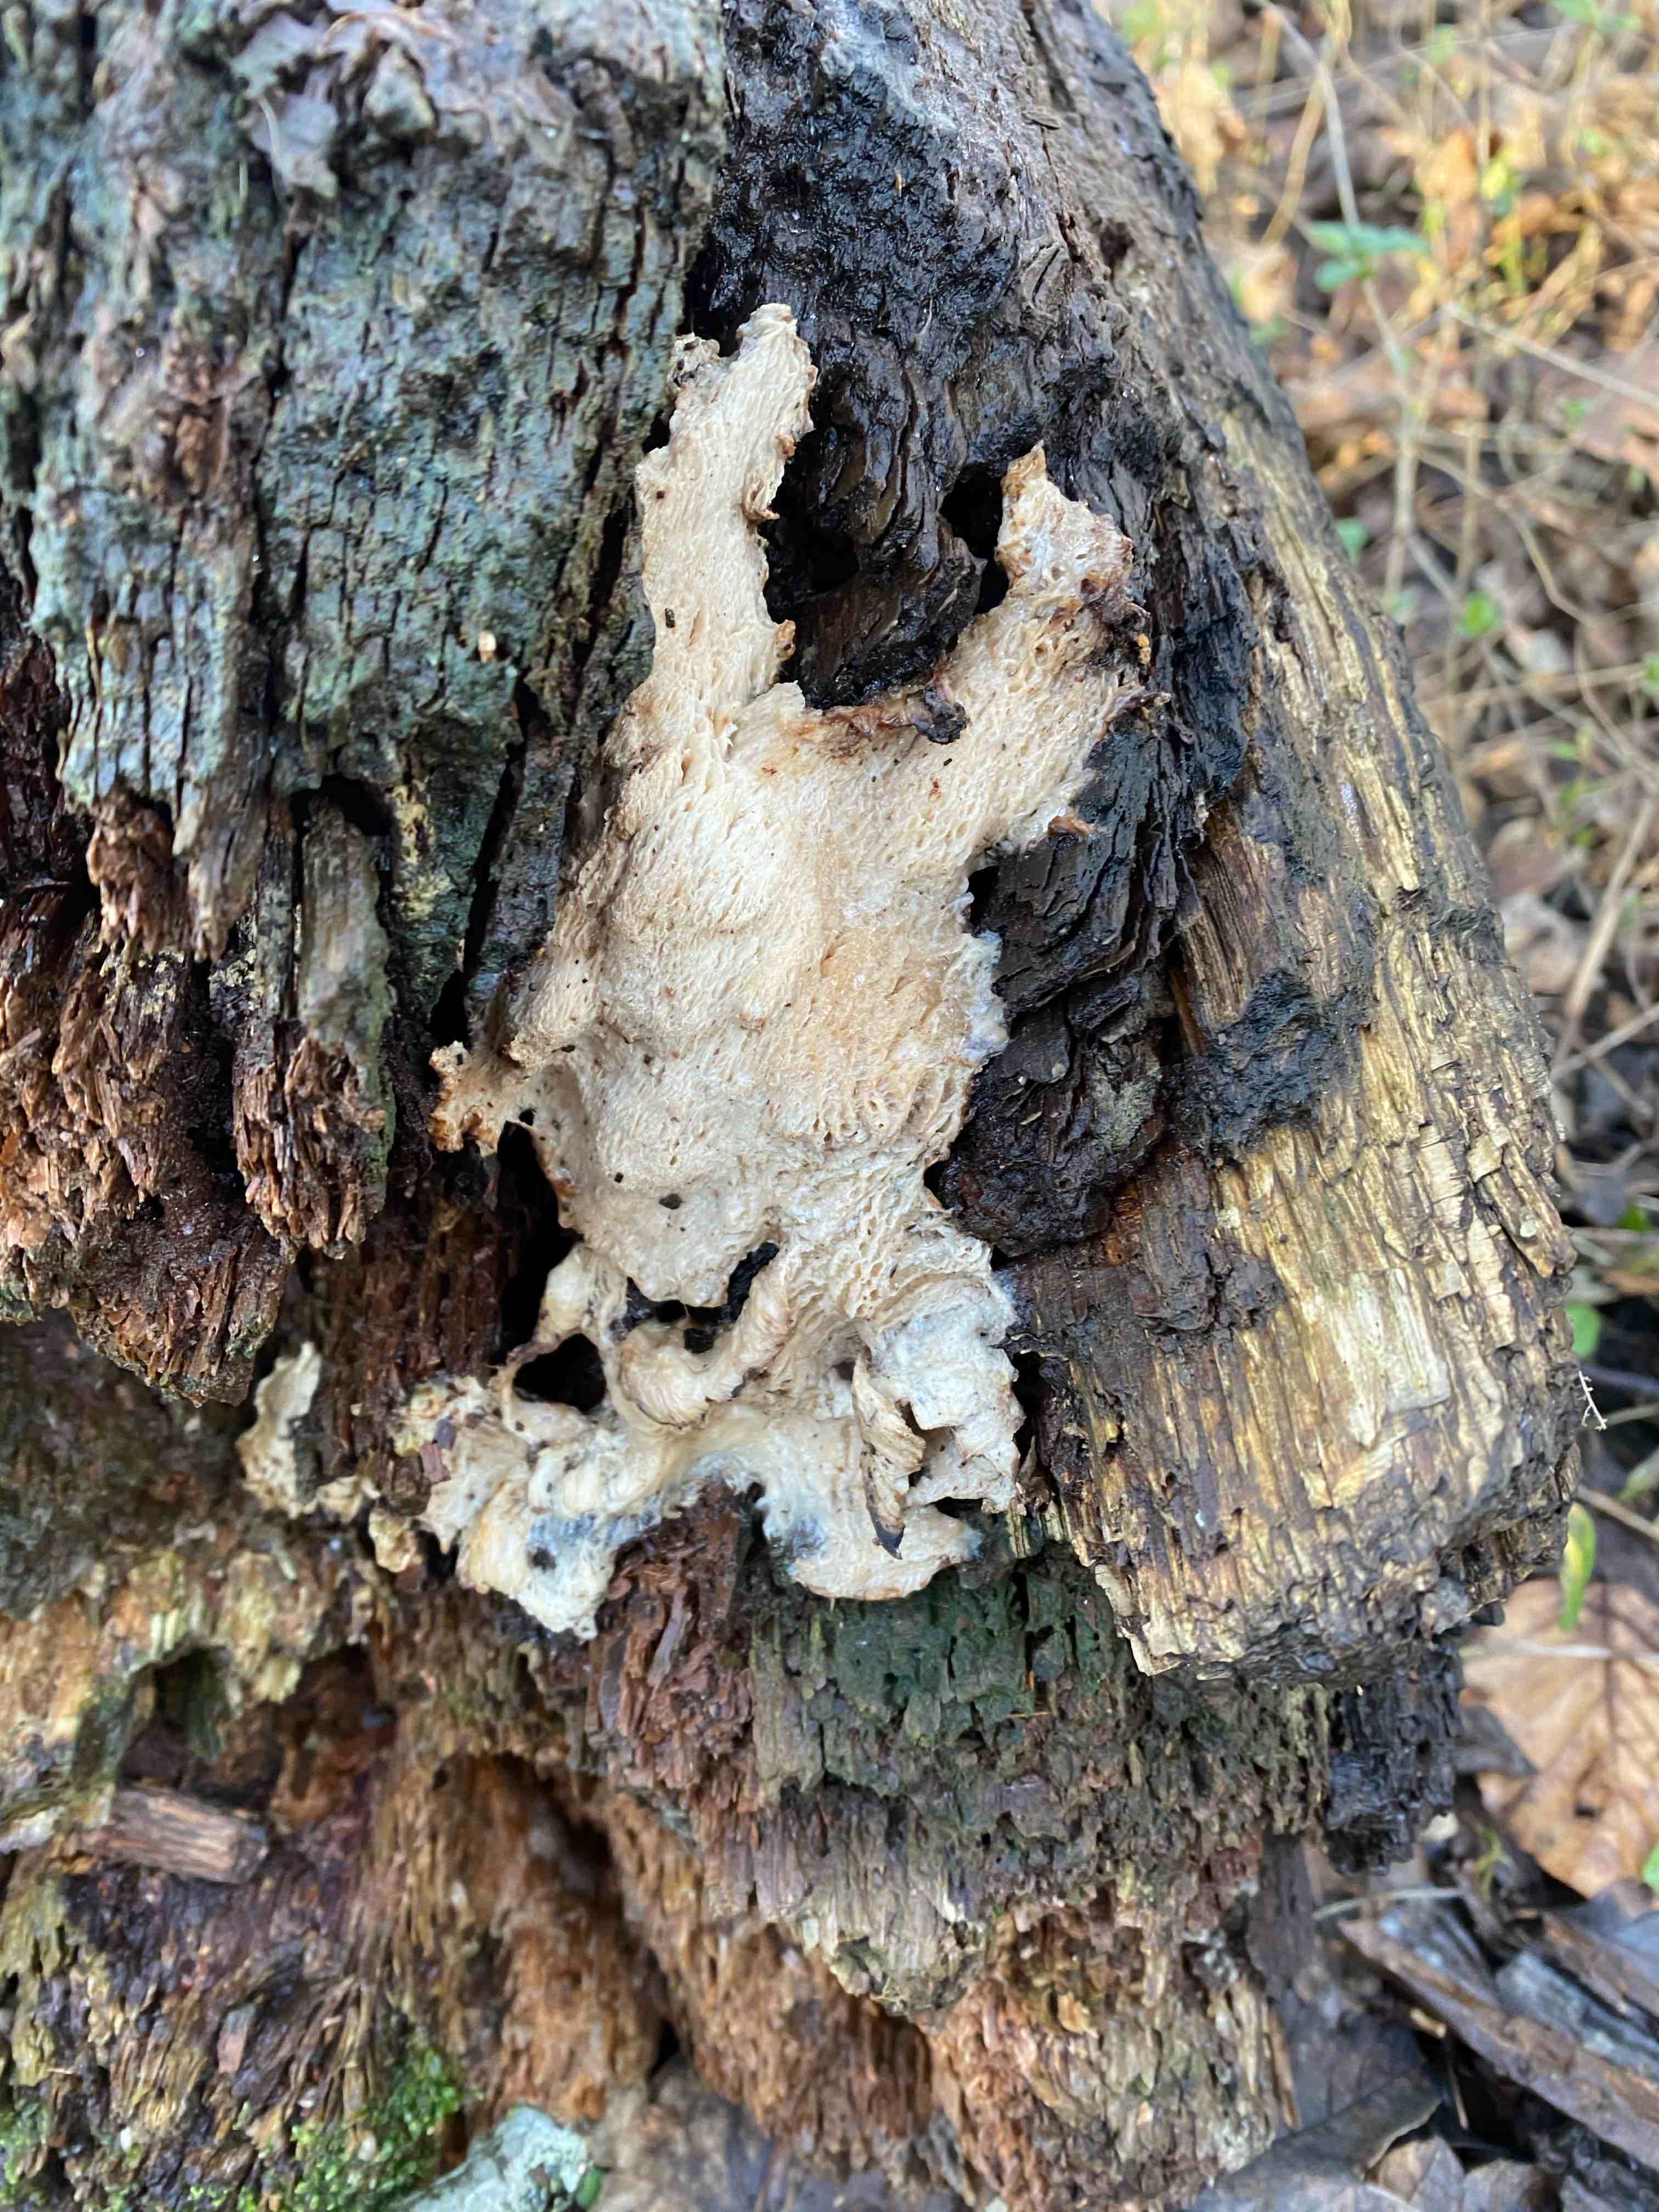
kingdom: Fungi
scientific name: Fungi
